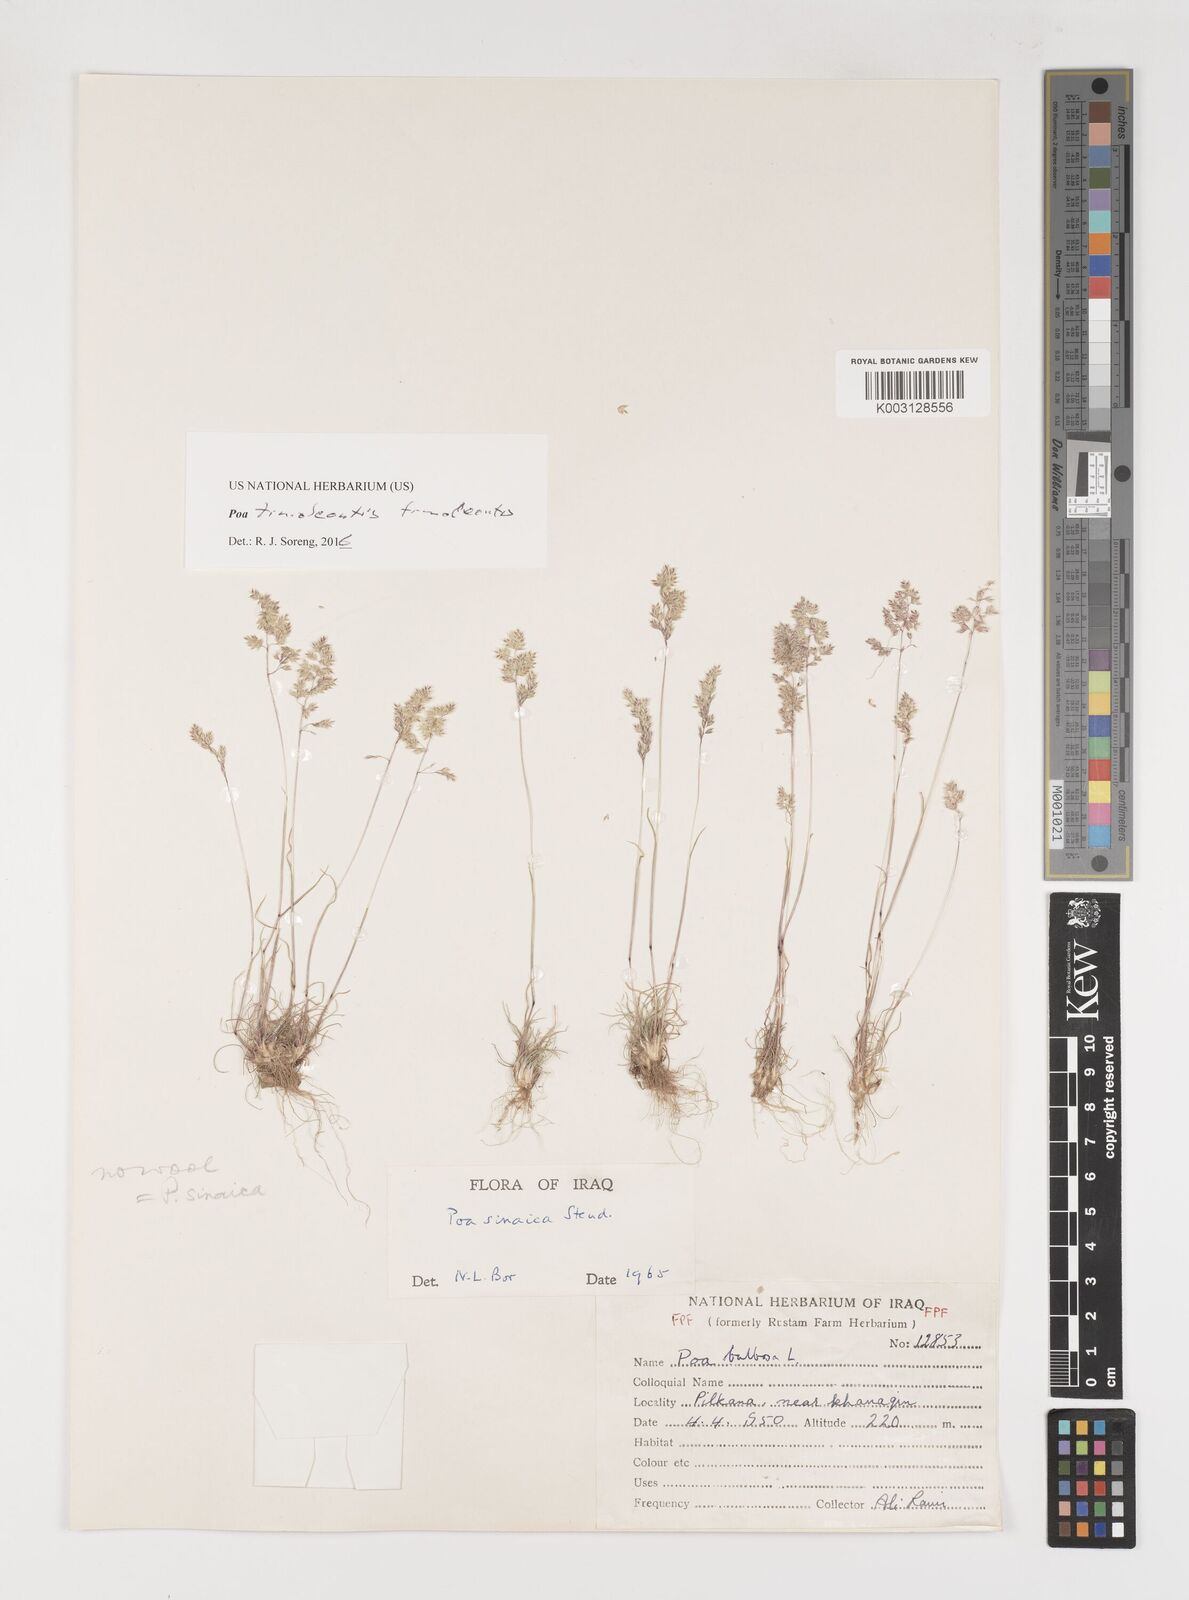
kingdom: Plantae
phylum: Tracheophyta
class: Liliopsida
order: Poales
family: Poaceae
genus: Poa
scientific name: Poa timoleontis
